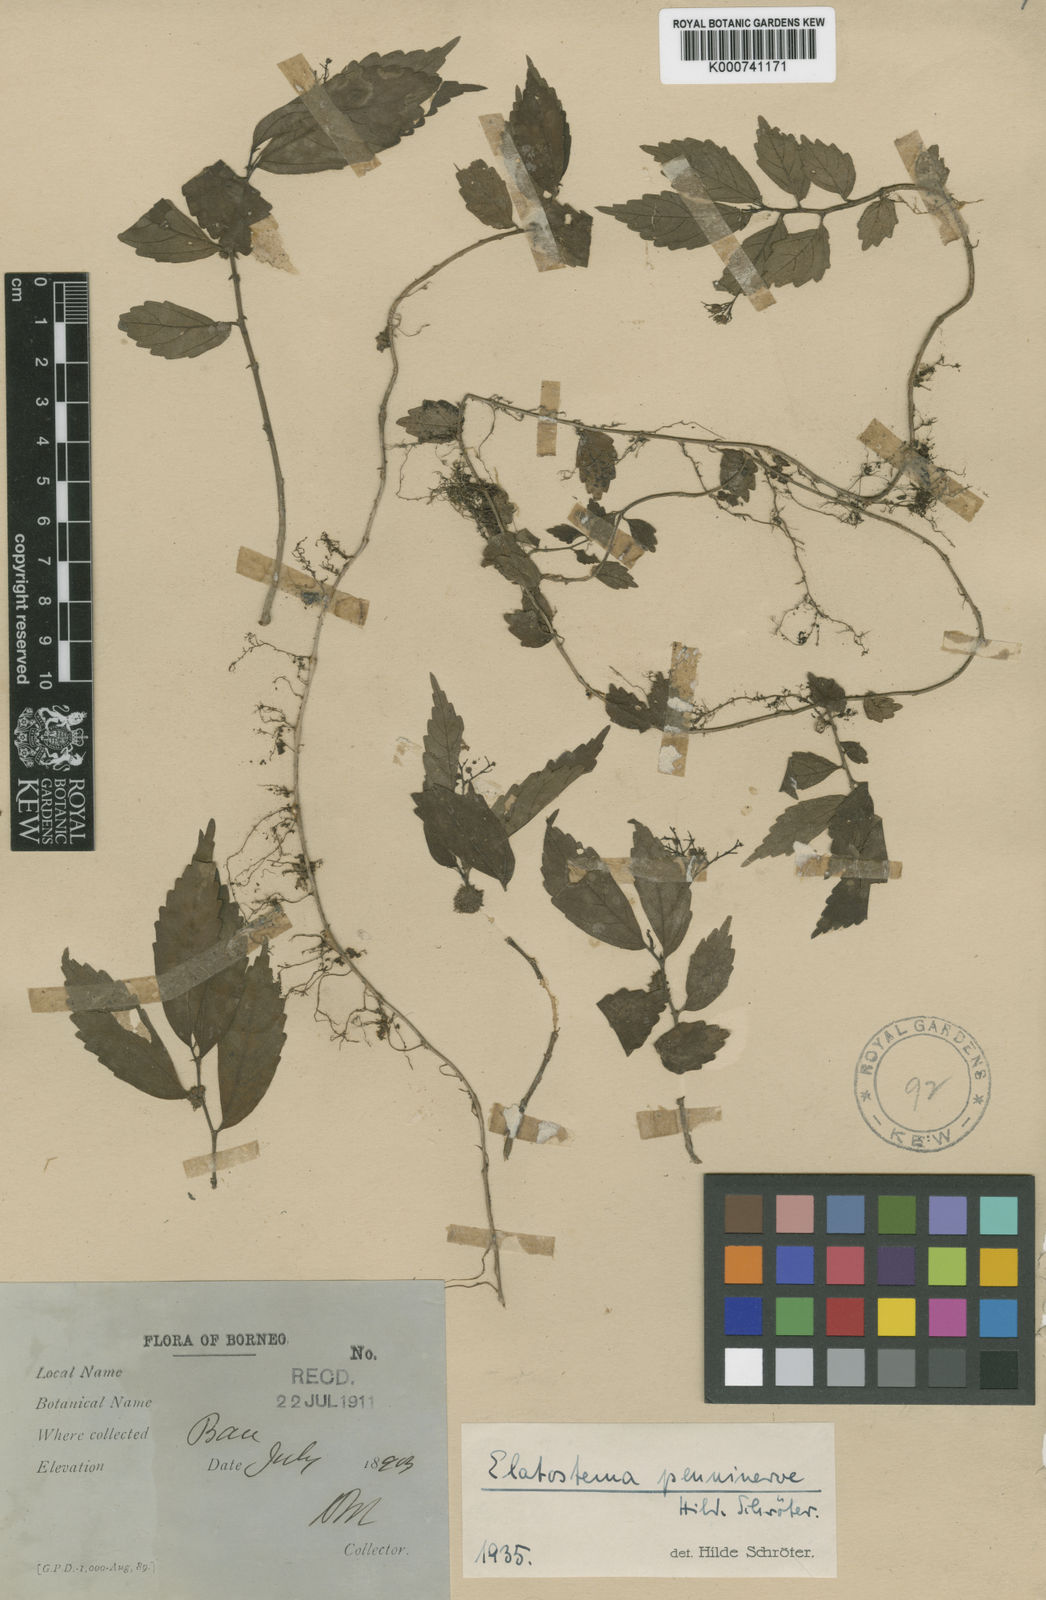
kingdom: Plantae
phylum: Tracheophyta
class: Magnoliopsida
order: Rosales
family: Urticaceae
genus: Elatostema
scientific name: Elatostema penninerve
